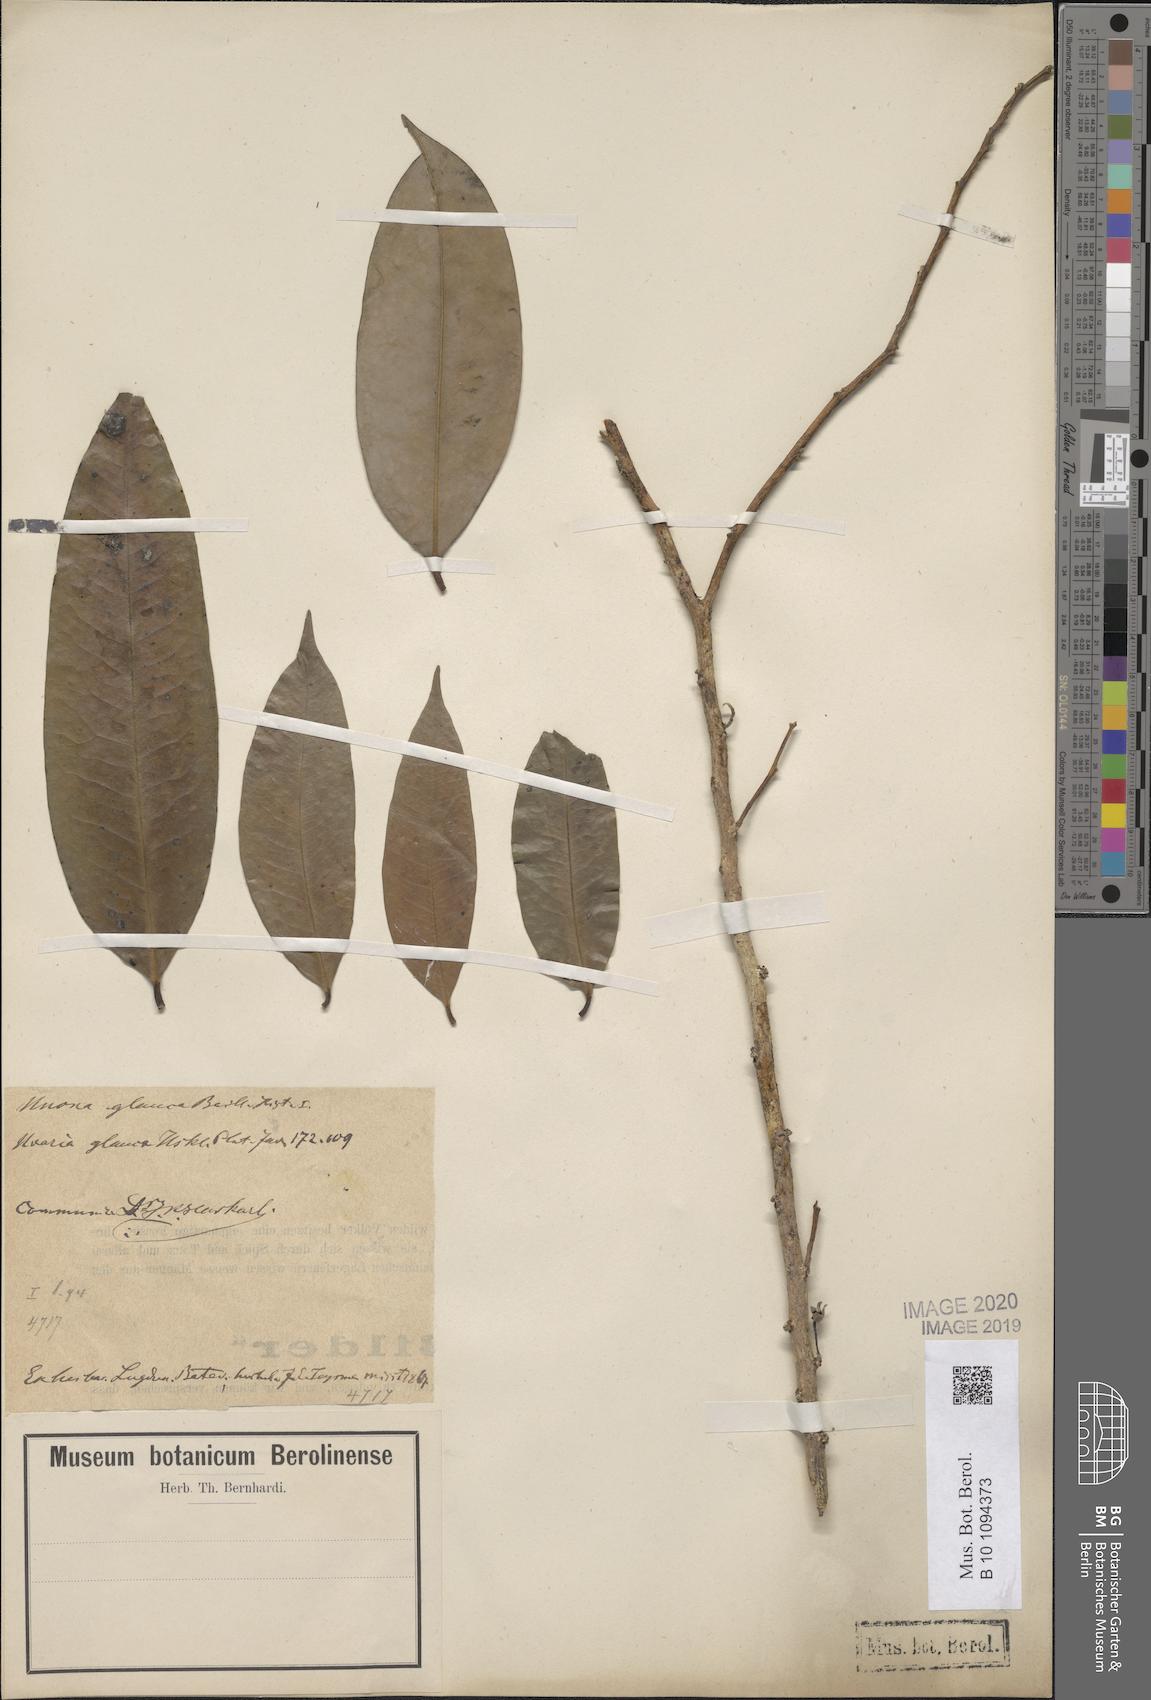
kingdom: Plantae
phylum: Tracheophyta
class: Magnoliopsida
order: Magnoliales
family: Annonaceae
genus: Maasia
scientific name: Maasia glauca
